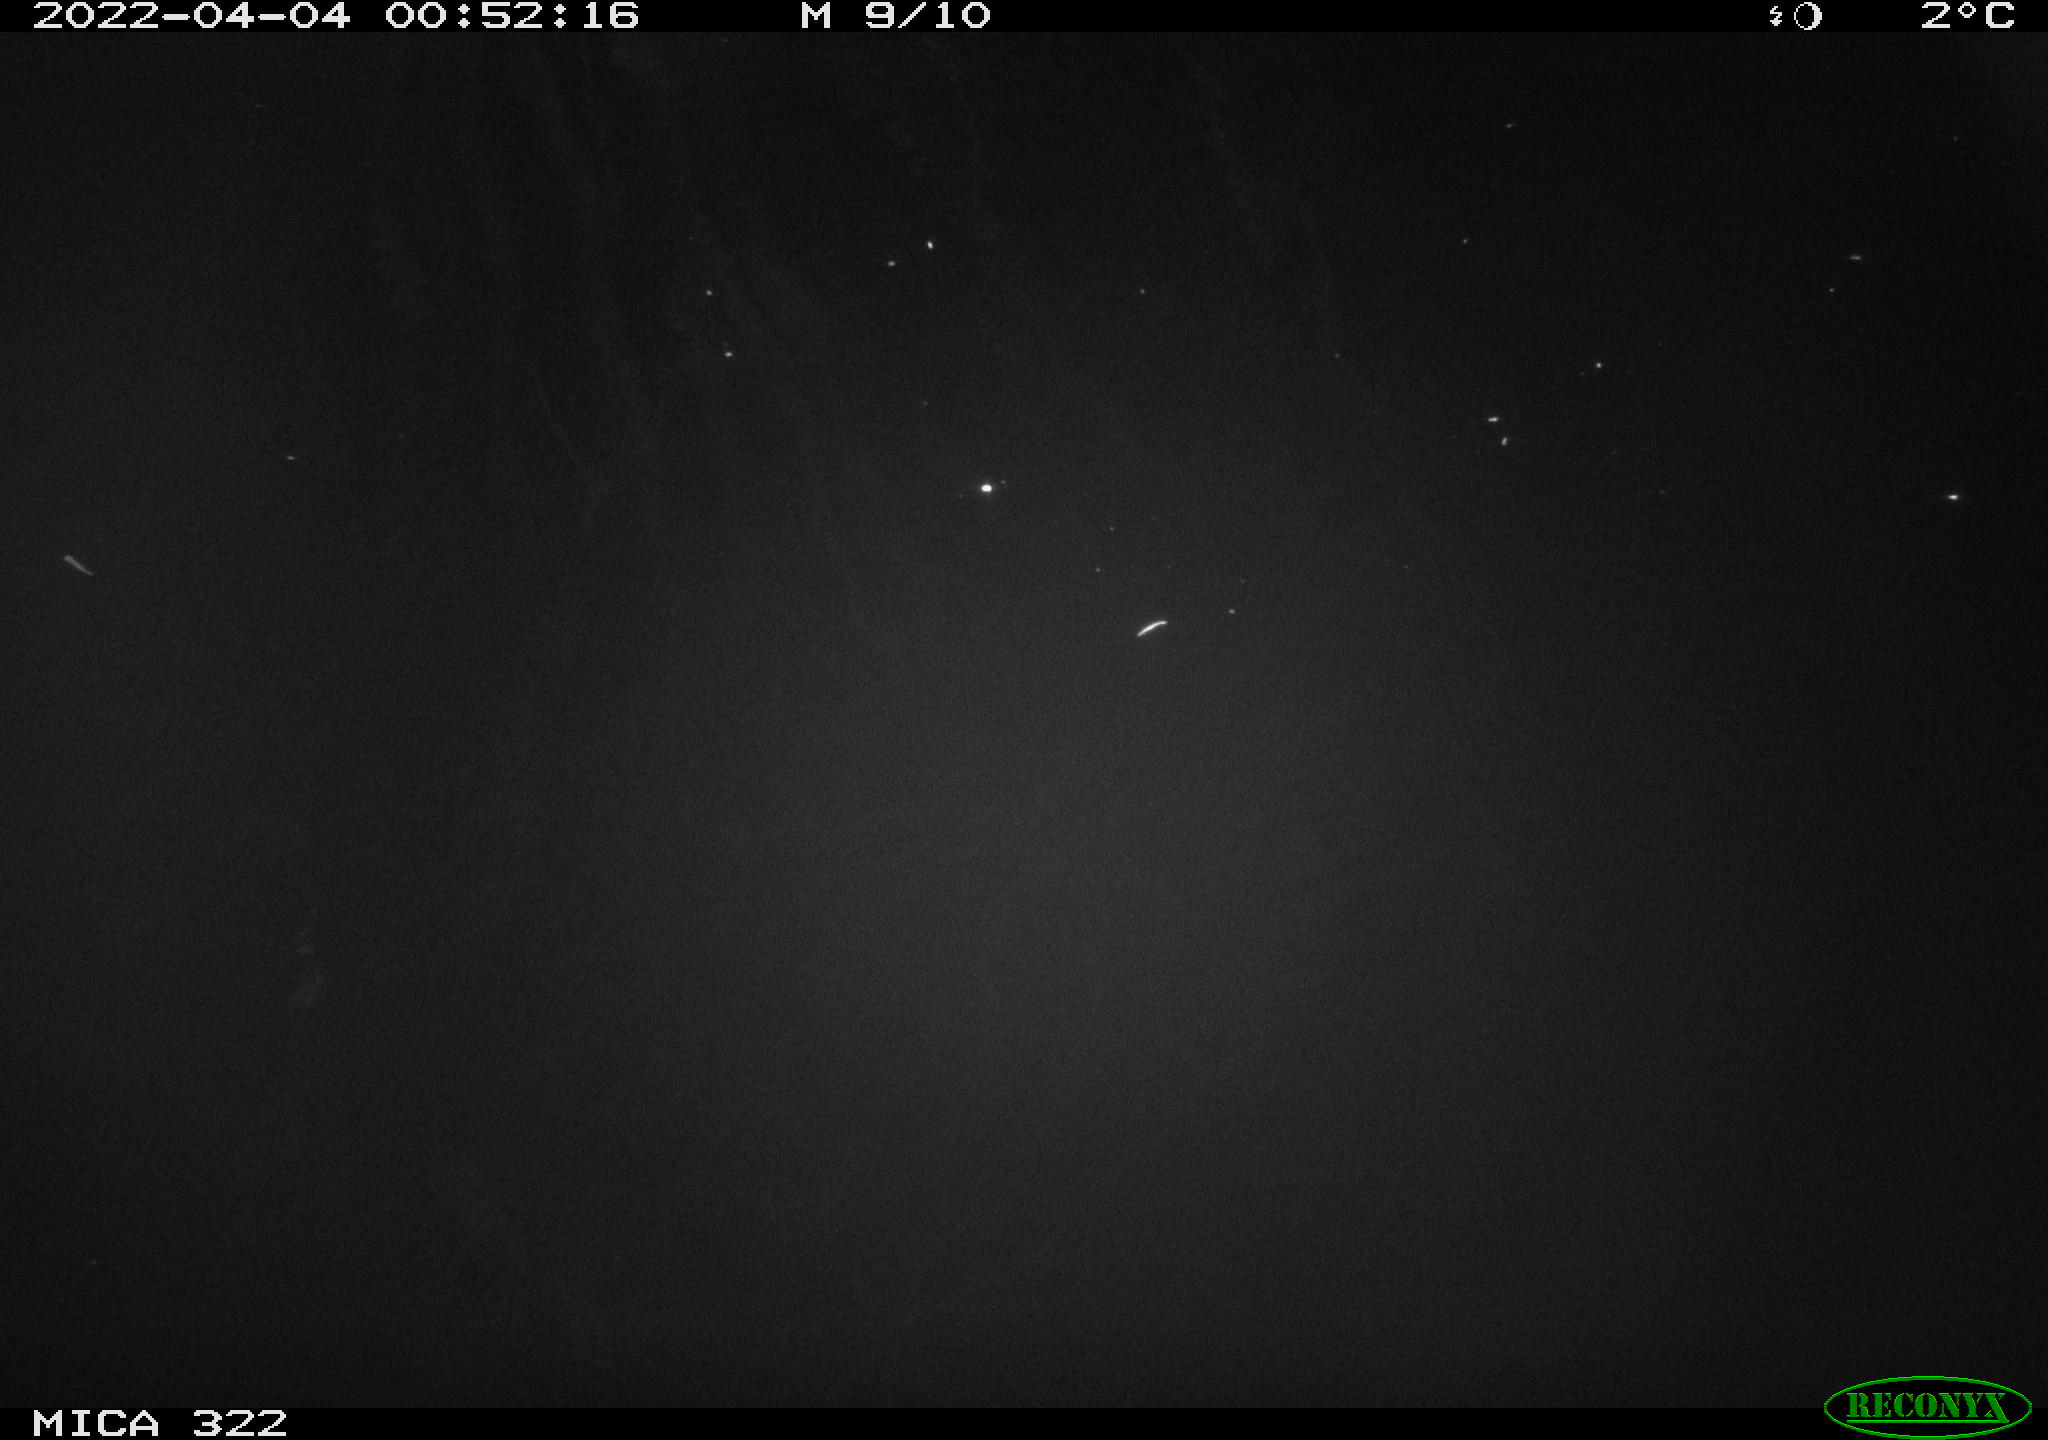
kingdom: Animalia
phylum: Chordata
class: Aves
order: Anseriformes
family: Anatidae
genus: Anas
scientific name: Anas platyrhynchos
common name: Mallard
